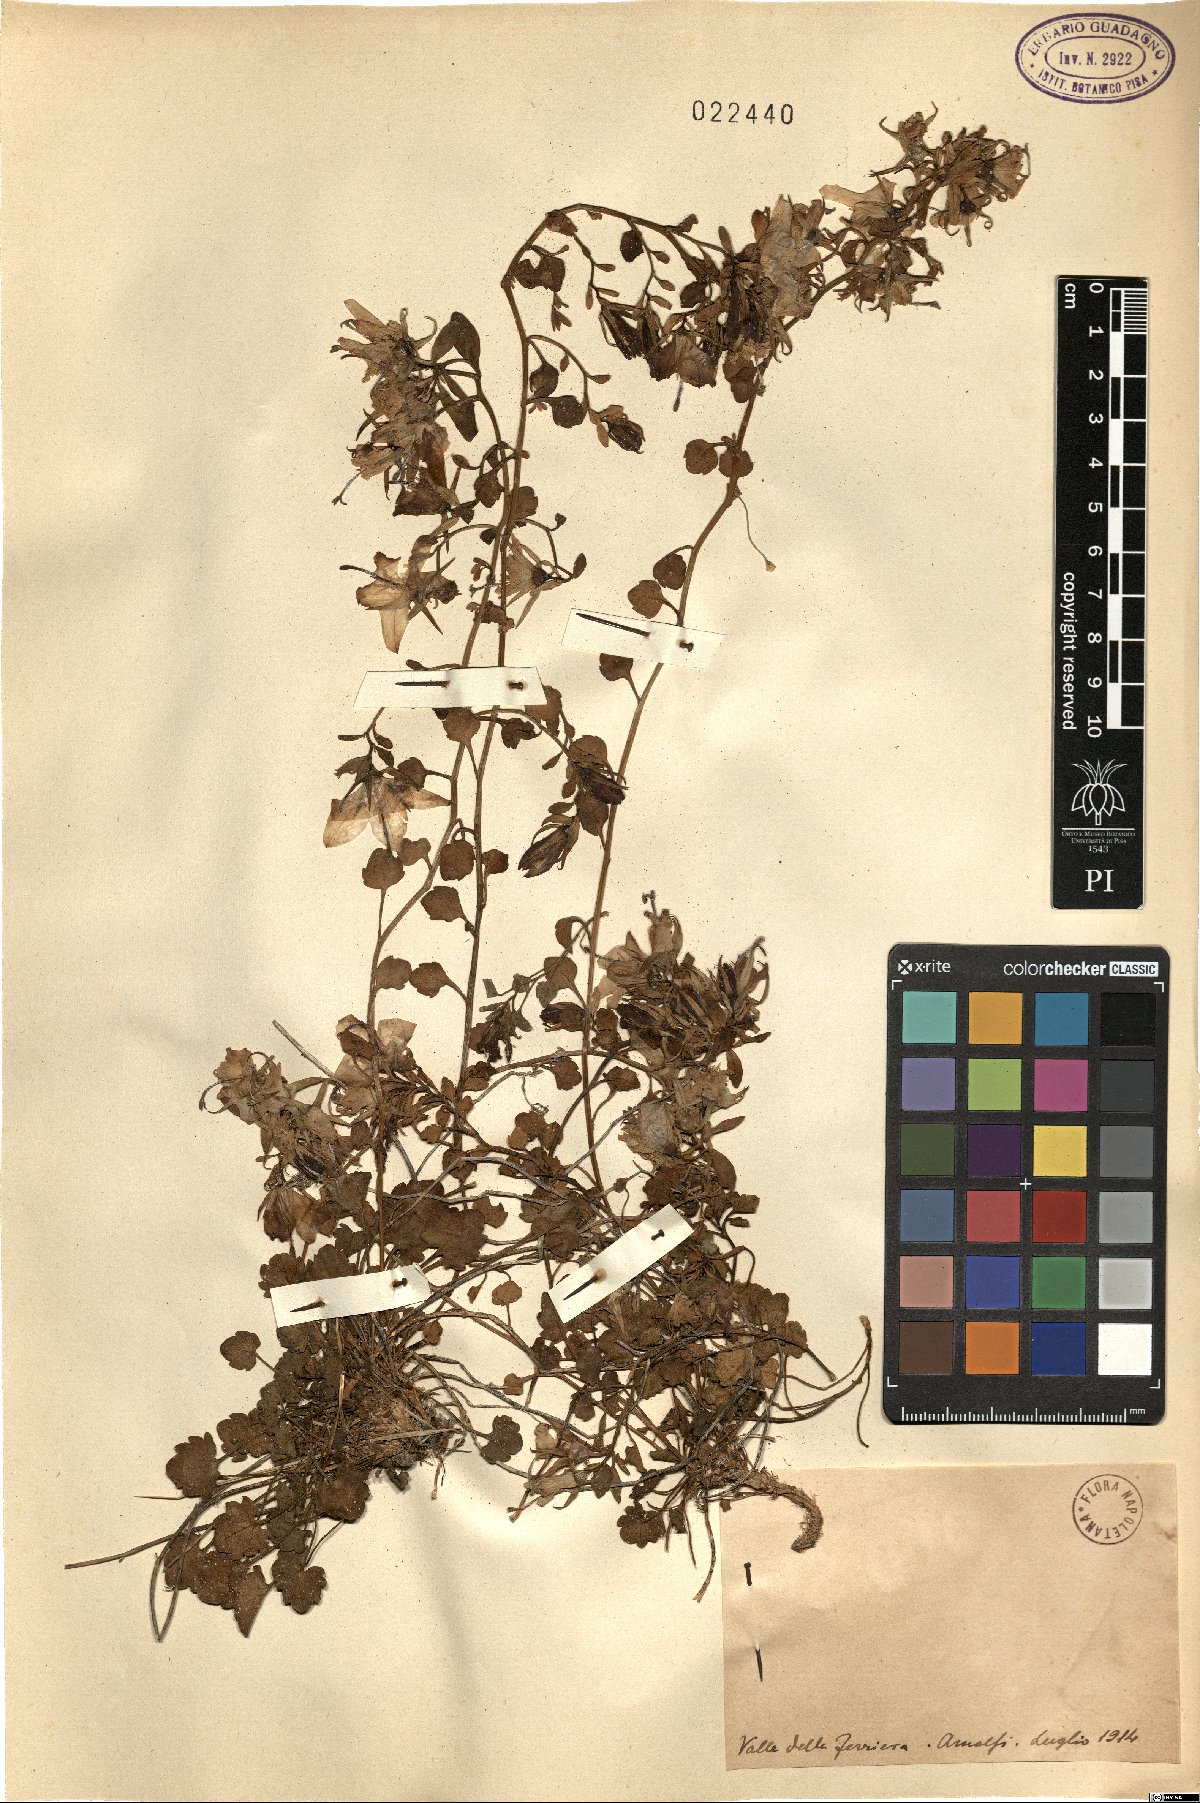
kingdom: Plantae
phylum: Tracheophyta
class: Magnoliopsida
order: Asterales
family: Campanulaceae
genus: Campanula
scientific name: Campanula
